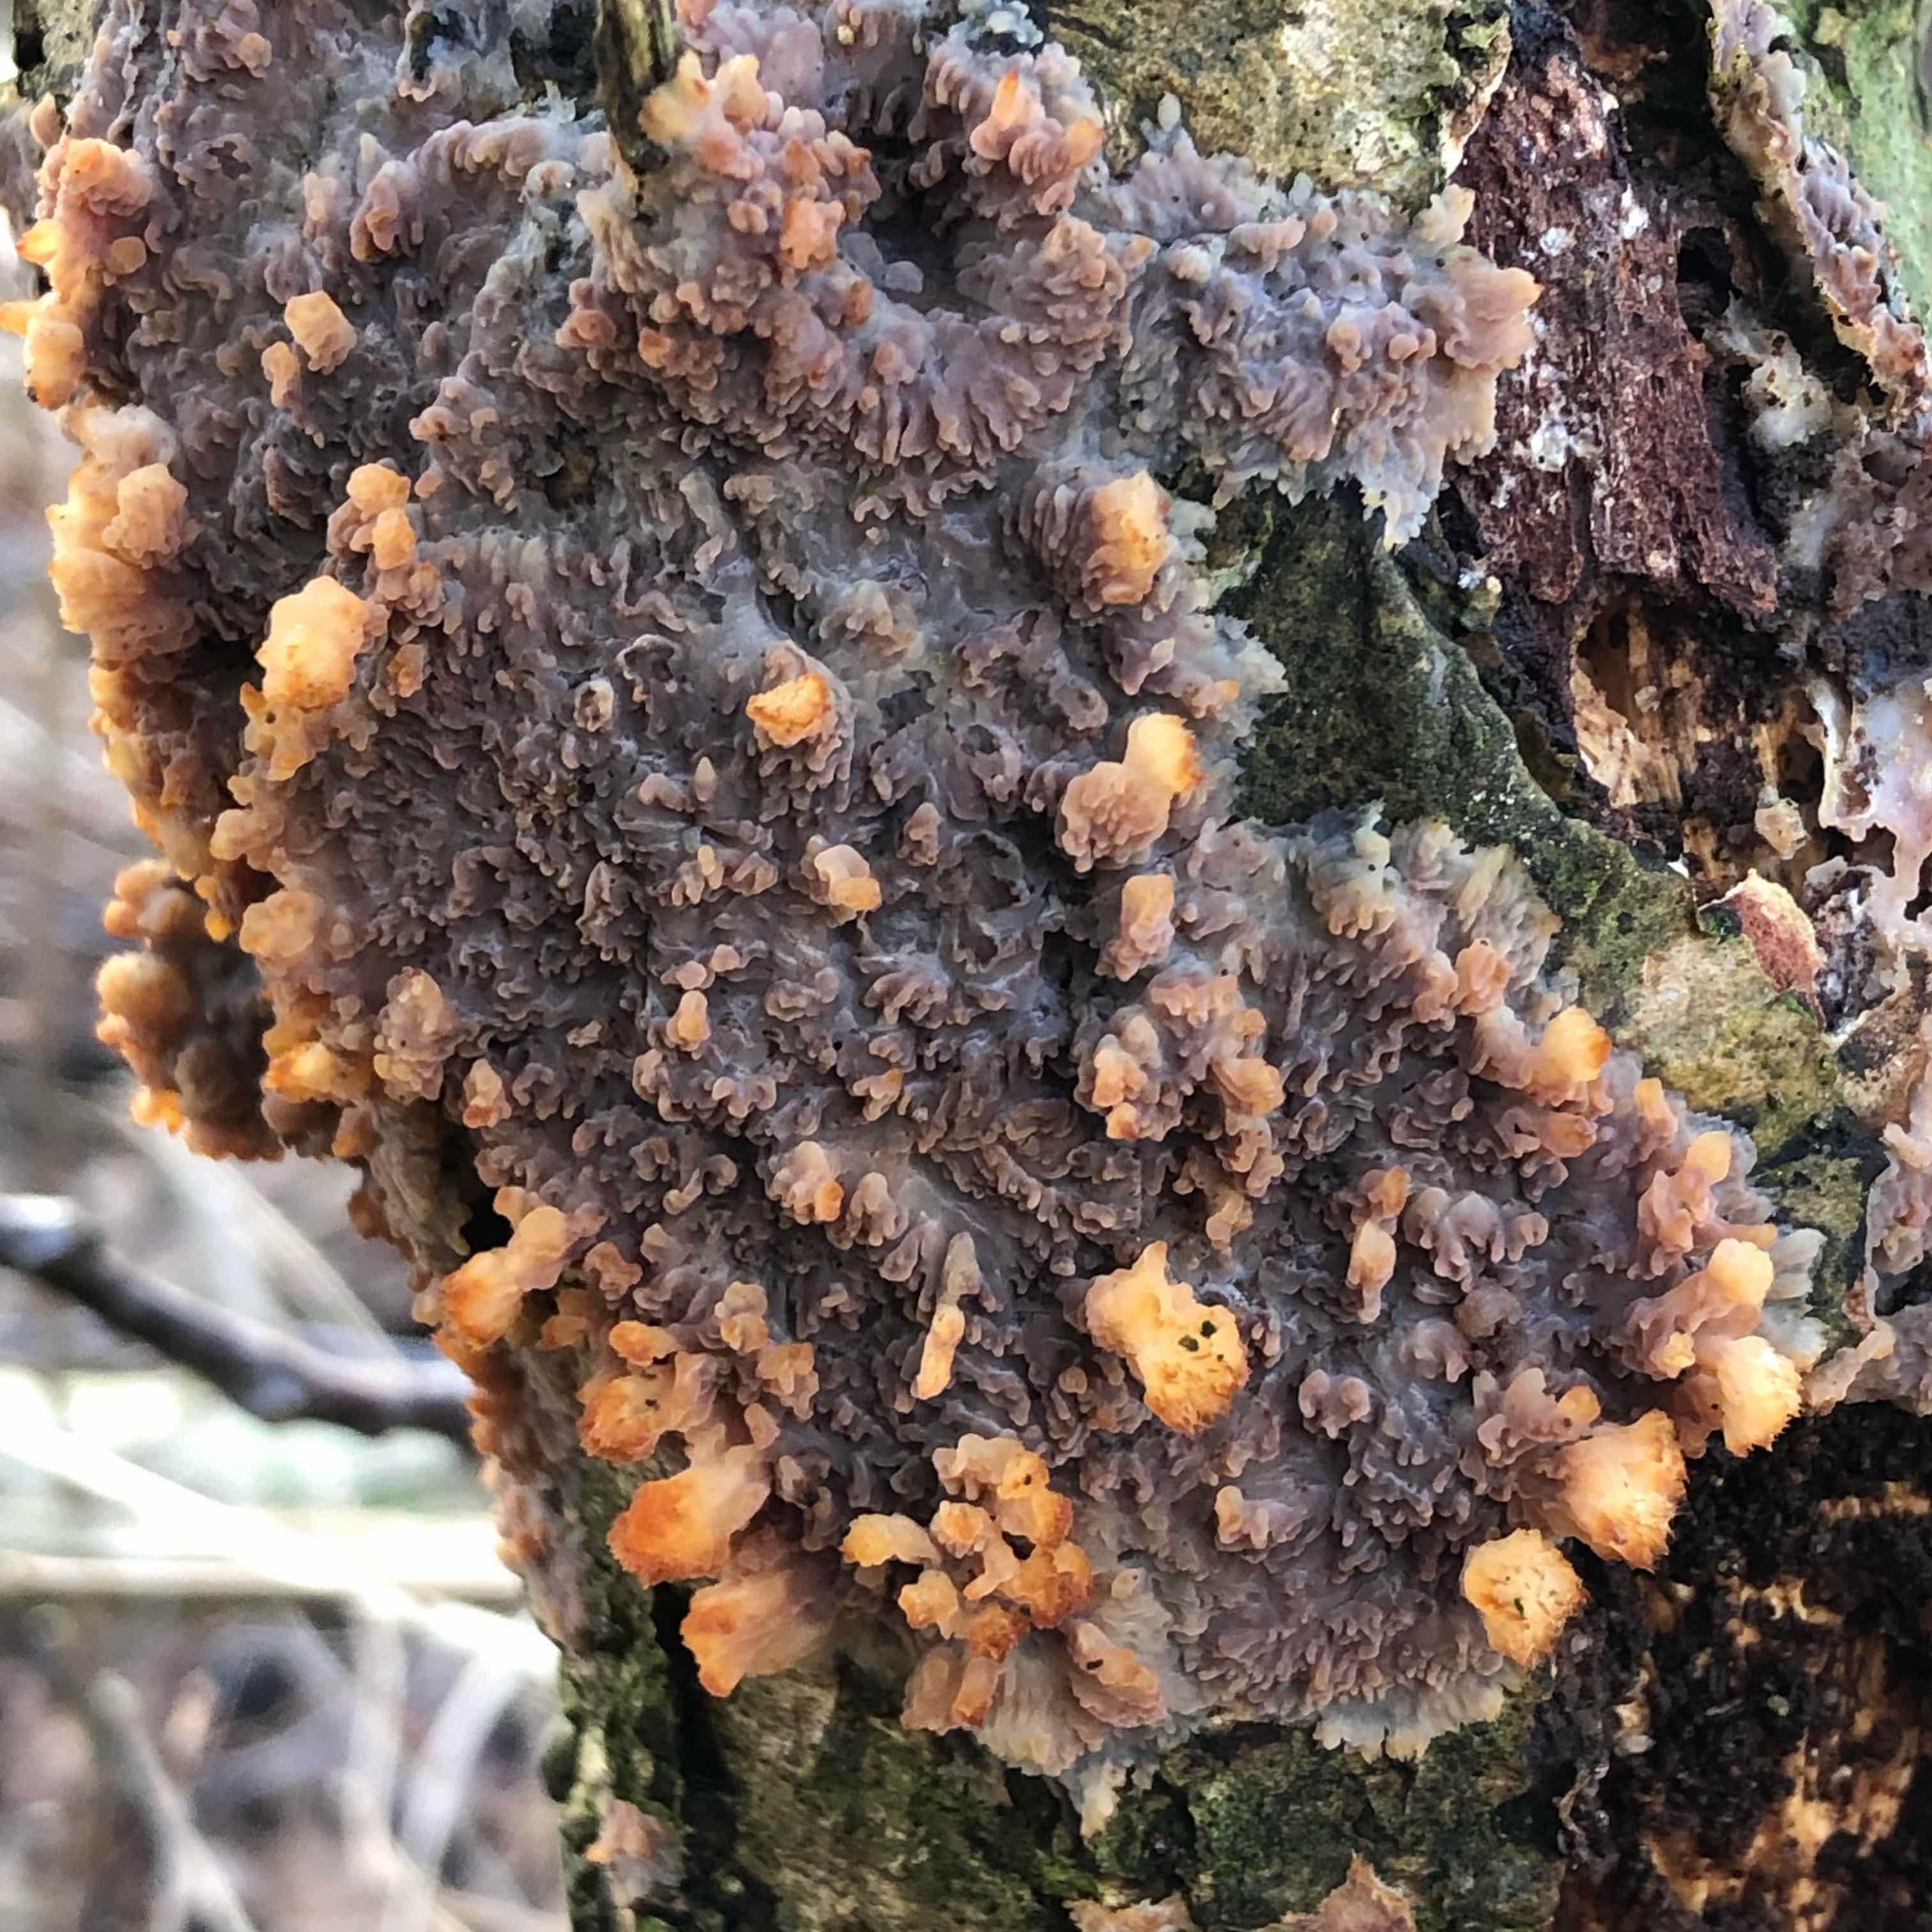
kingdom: Fungi
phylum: Basidiomycota
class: Agaricomycetes
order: Polyporales
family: Meruliaceae
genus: Phlebia
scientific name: Phlebia radiata
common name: stråle-åresvamp
